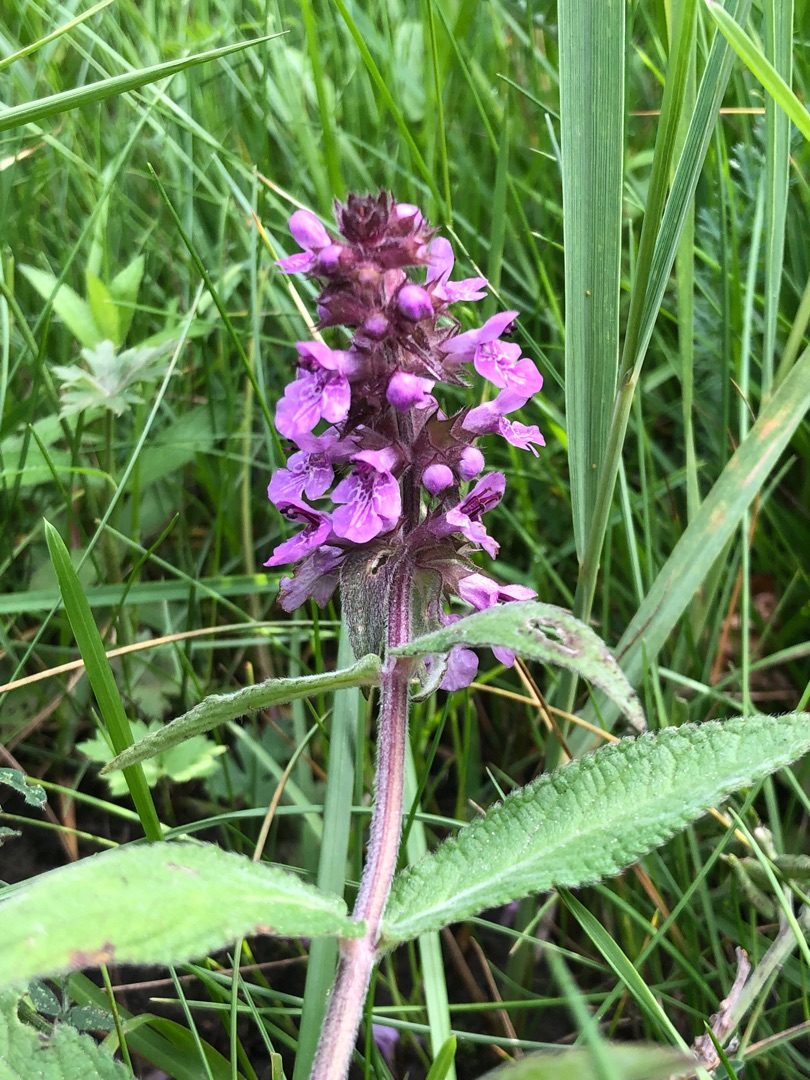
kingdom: Plantae
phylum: Tracheophyta
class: Magnoliopsida
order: Lamiales
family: Lamiaceae
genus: Stachys
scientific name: Stachys palustris
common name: Kær-galtetand
